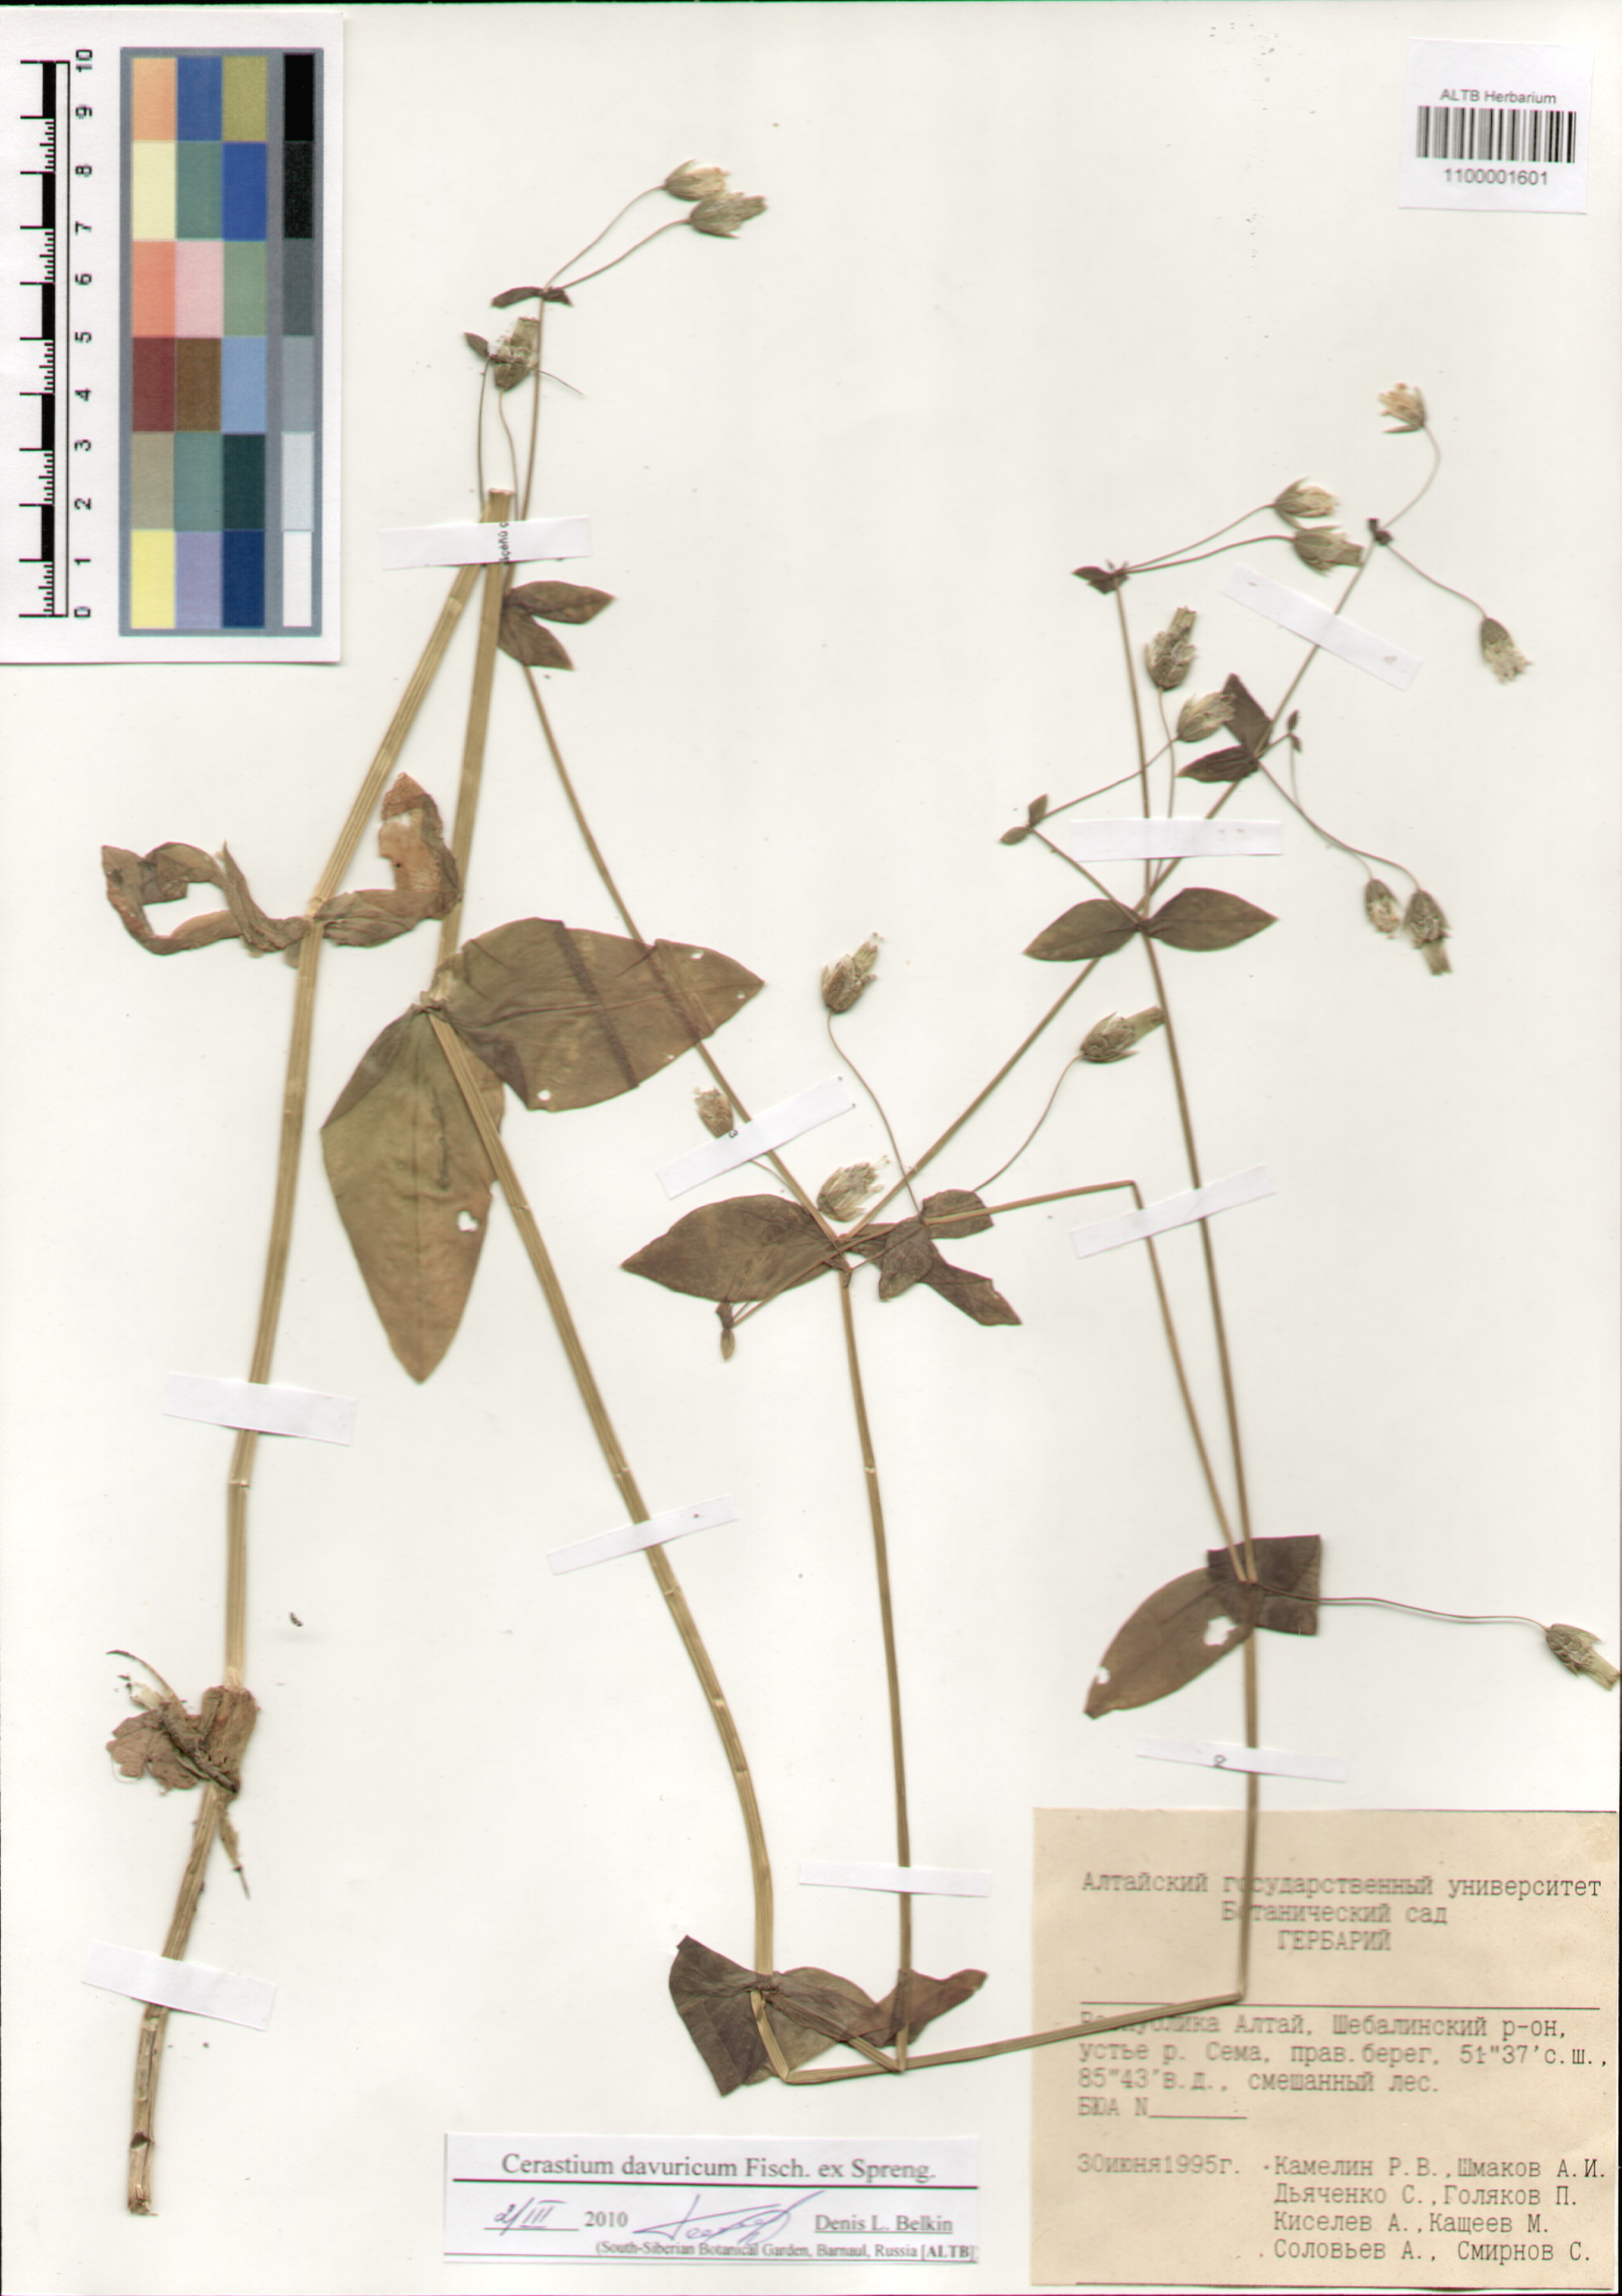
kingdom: Plantae
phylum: Tracheophyta
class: Magnoliopsida
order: Caryophyllales
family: Caryophyllaceae
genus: Dichodon
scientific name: Dichodon davuricum
